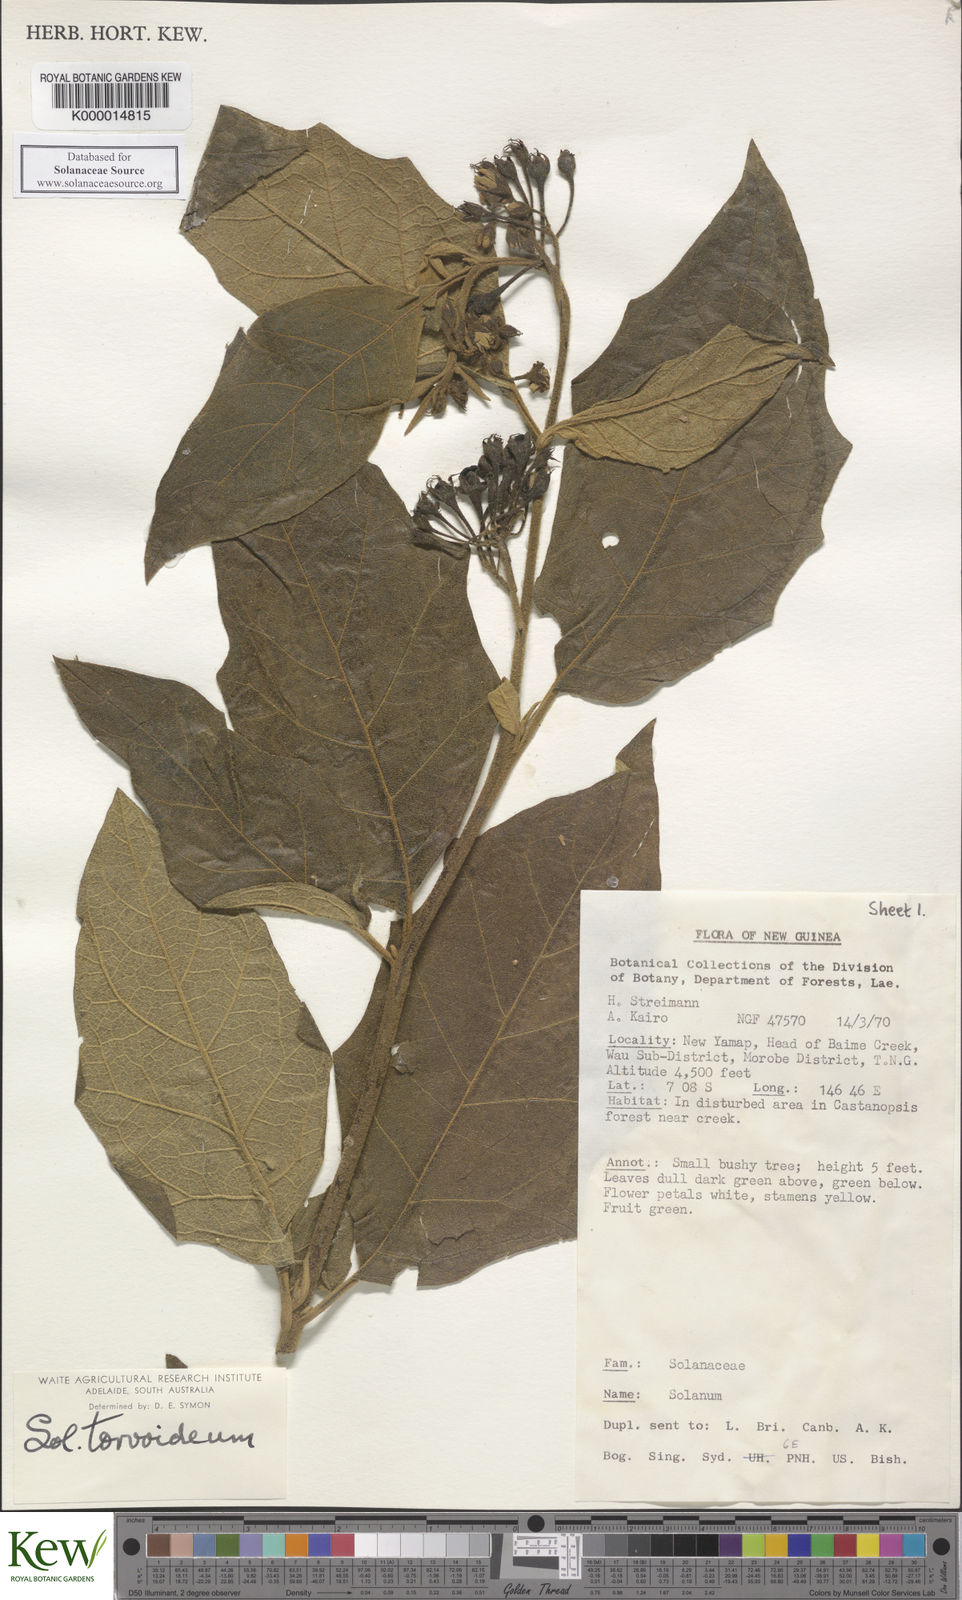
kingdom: Plantae
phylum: Tracheophyta
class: Magnoliopsida
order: Solanales
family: Solanaceae
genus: Solanum
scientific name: Solanum dammerianum
